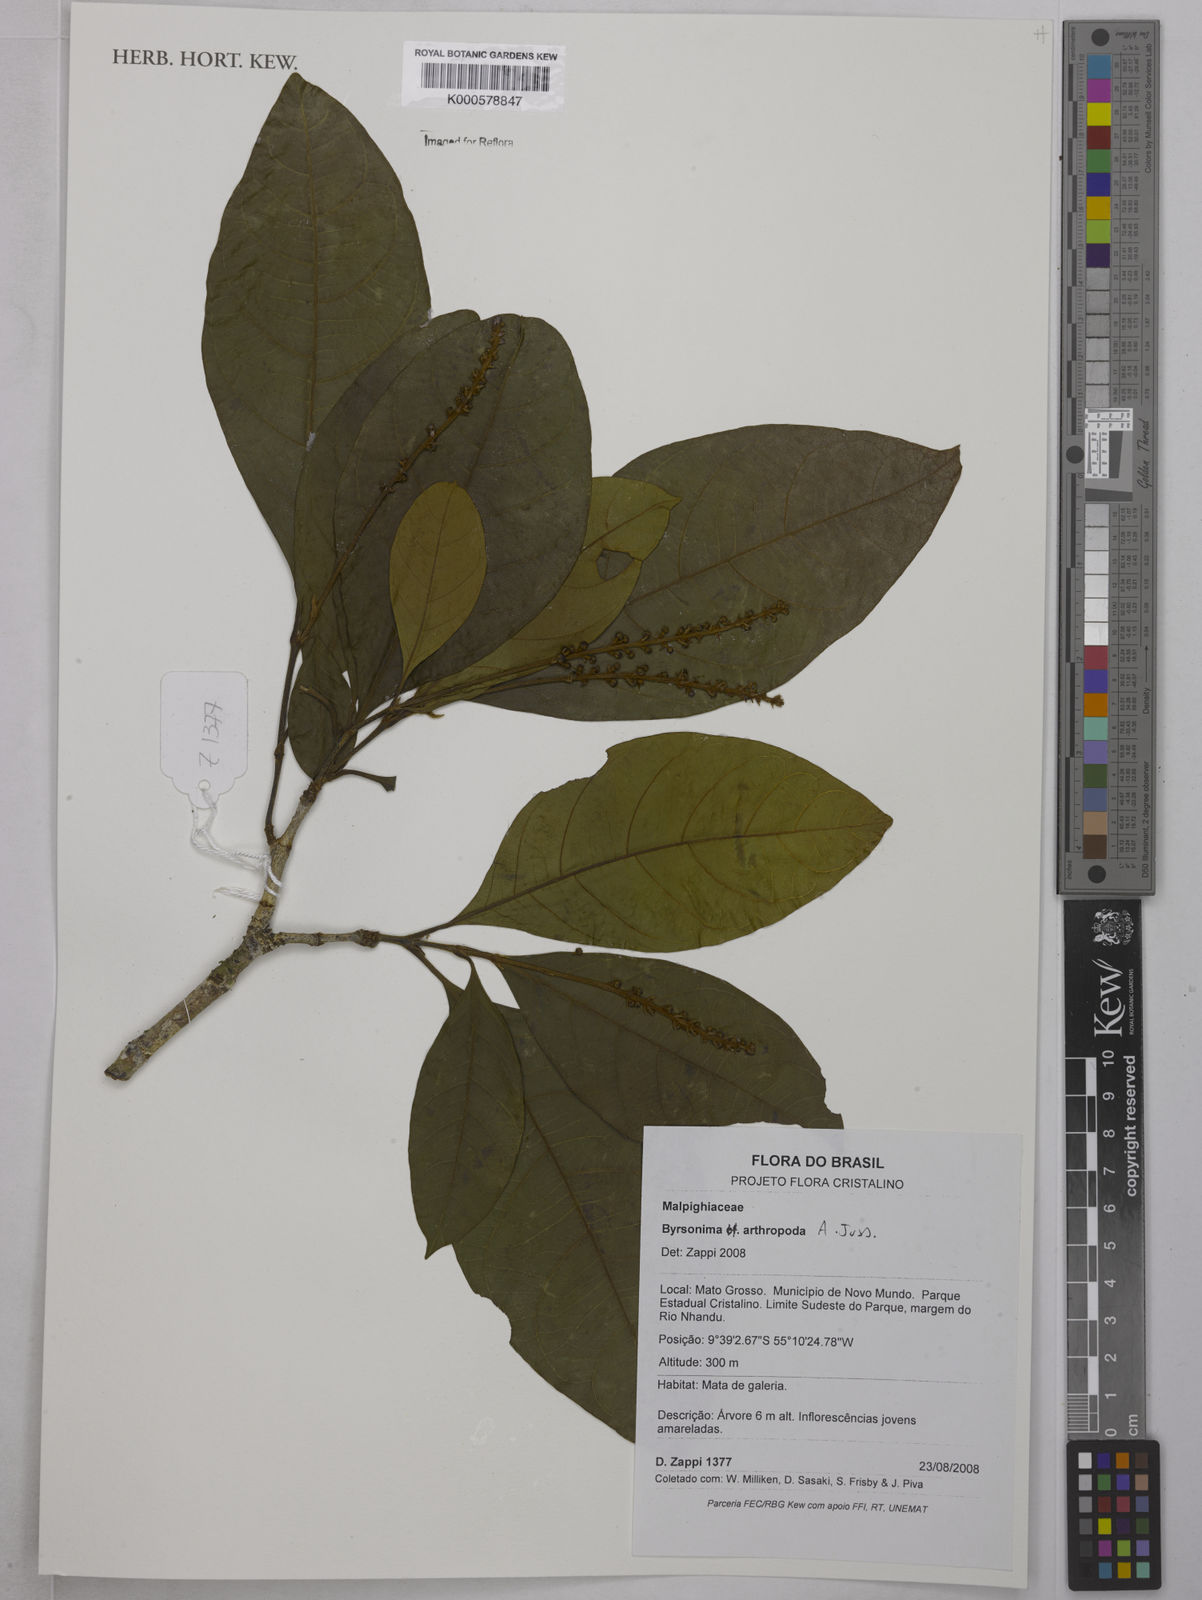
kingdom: Plantae
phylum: Tracheophyta
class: Magnoliopsida
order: Malpighiales
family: Malpighiaceae
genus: Byrsonima
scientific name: Byrsonima arthropoda
